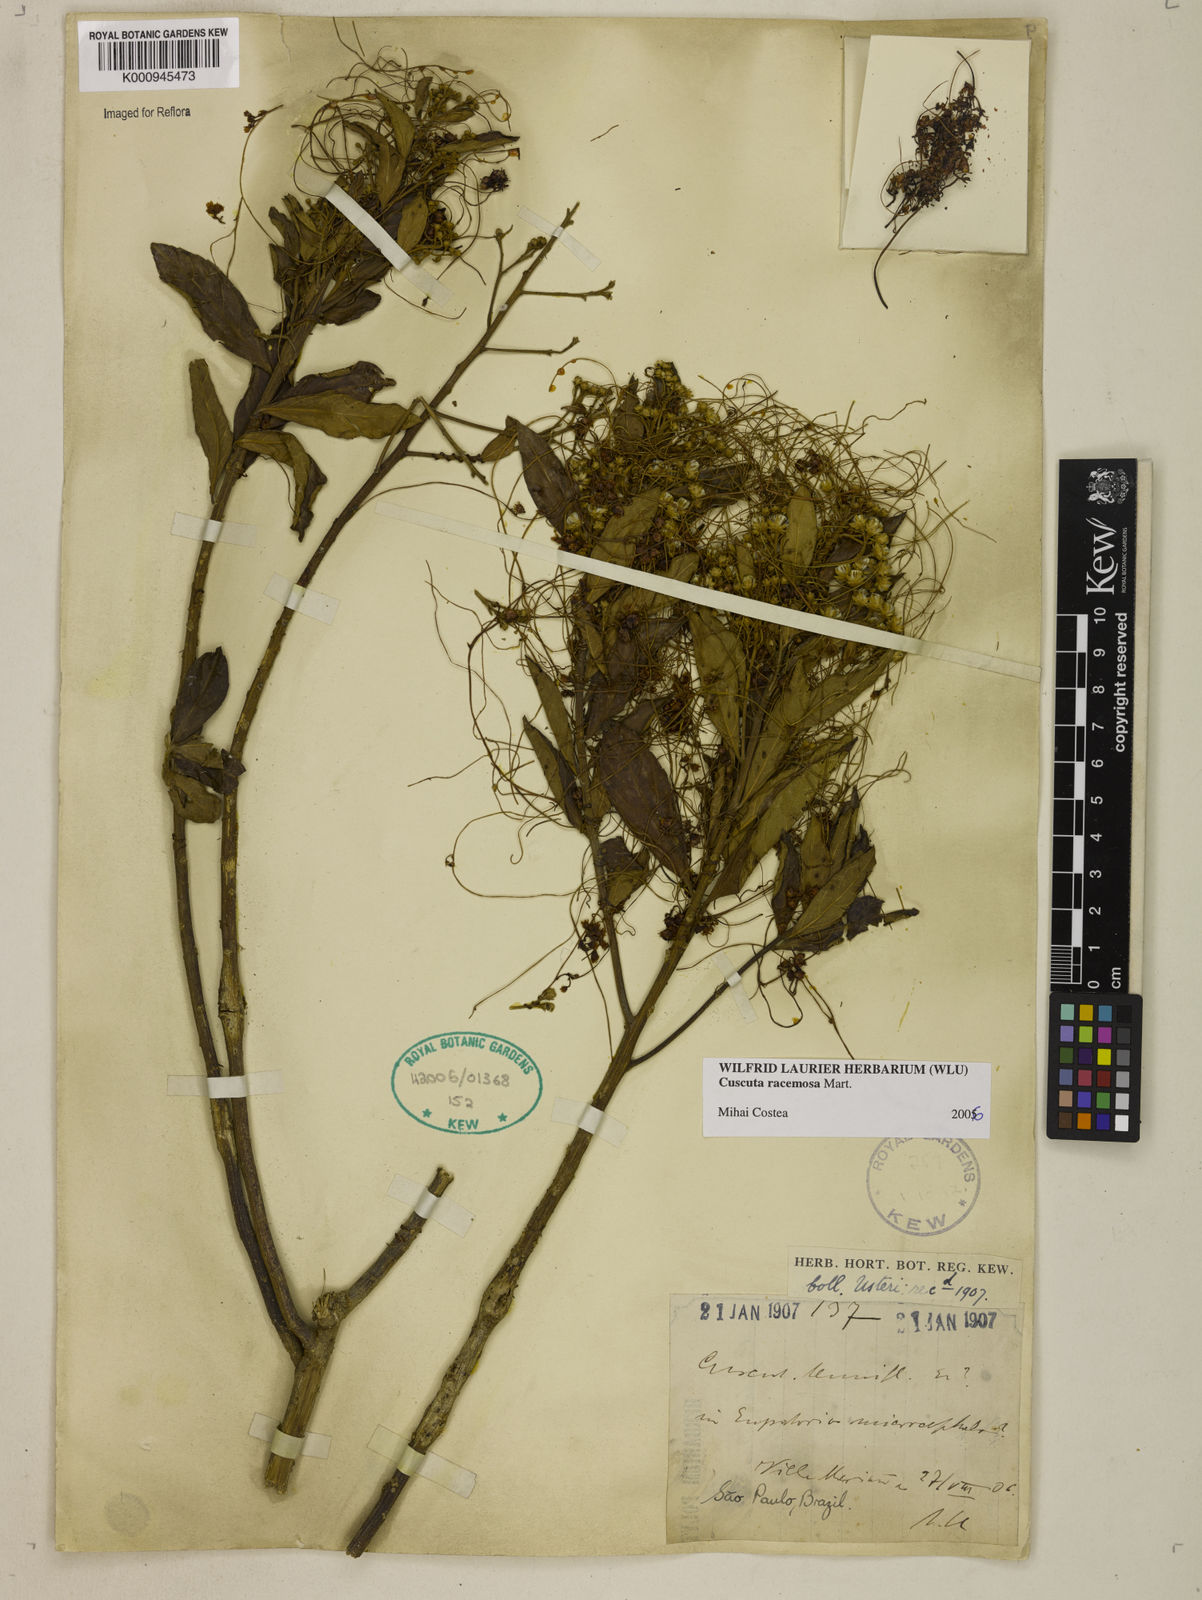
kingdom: Plantae
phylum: Tracheophyta
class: Magnoliopsida
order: Solanales
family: Convolvulaceae
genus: Cuscuta
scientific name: Cuscuta racemosa
